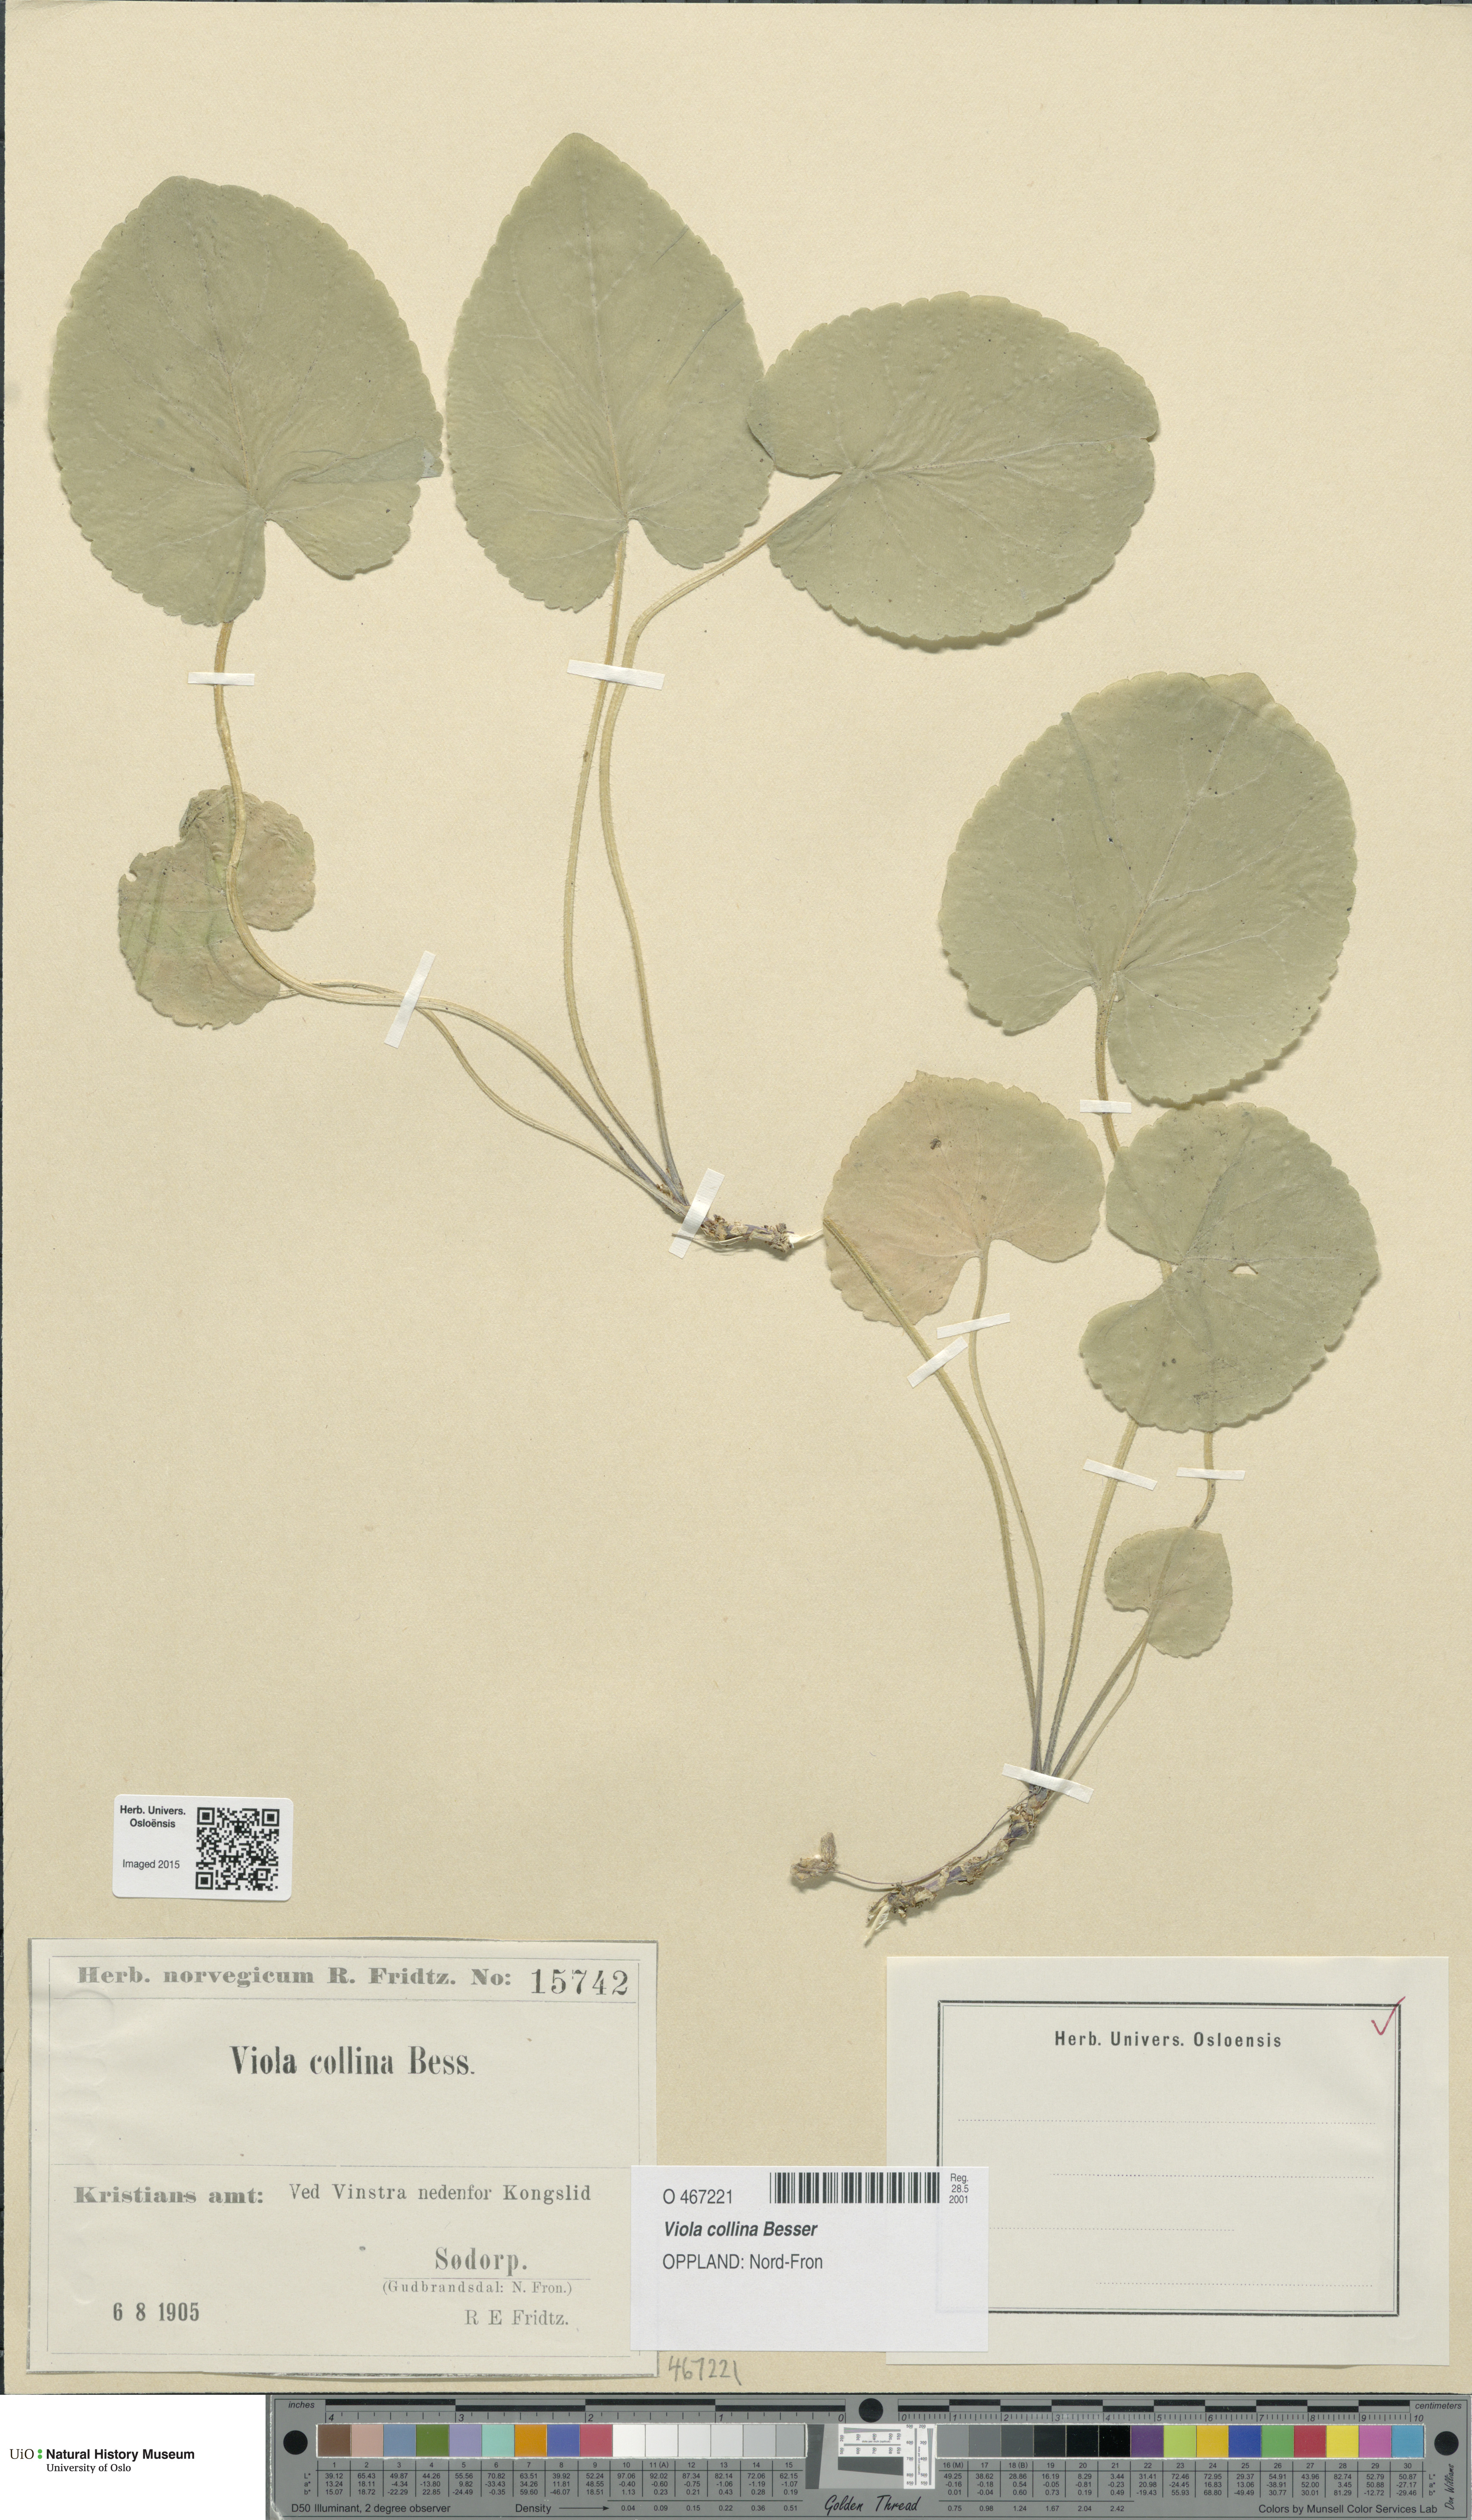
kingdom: Plantae
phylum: Tracheophyta
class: Magnoliopsida
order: Malpighiales
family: Violaceae
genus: Viola
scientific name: Viola collina
